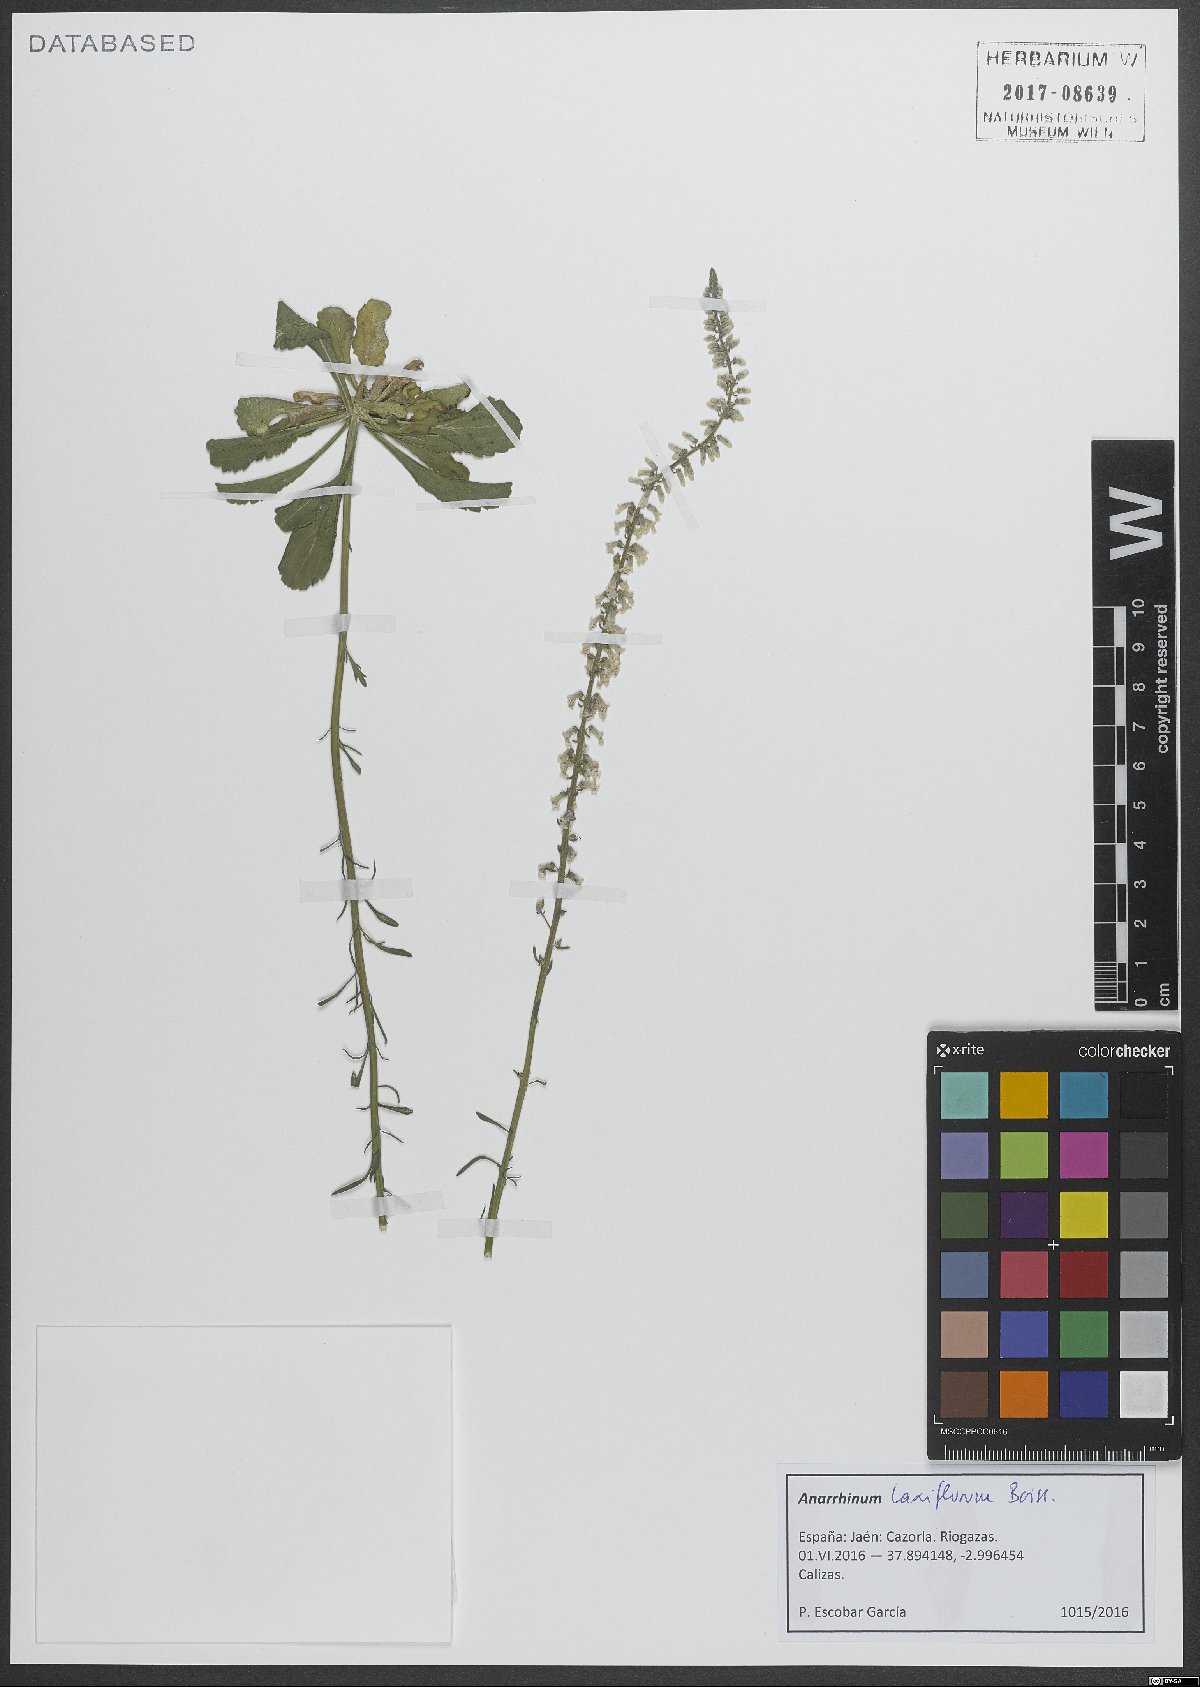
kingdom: Plantae
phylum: Tracheophyta
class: Magnoliopsida
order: Lamiales
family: Plantaginaceae
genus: Anarrhinum
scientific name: Anarrhinum laxiflorum
